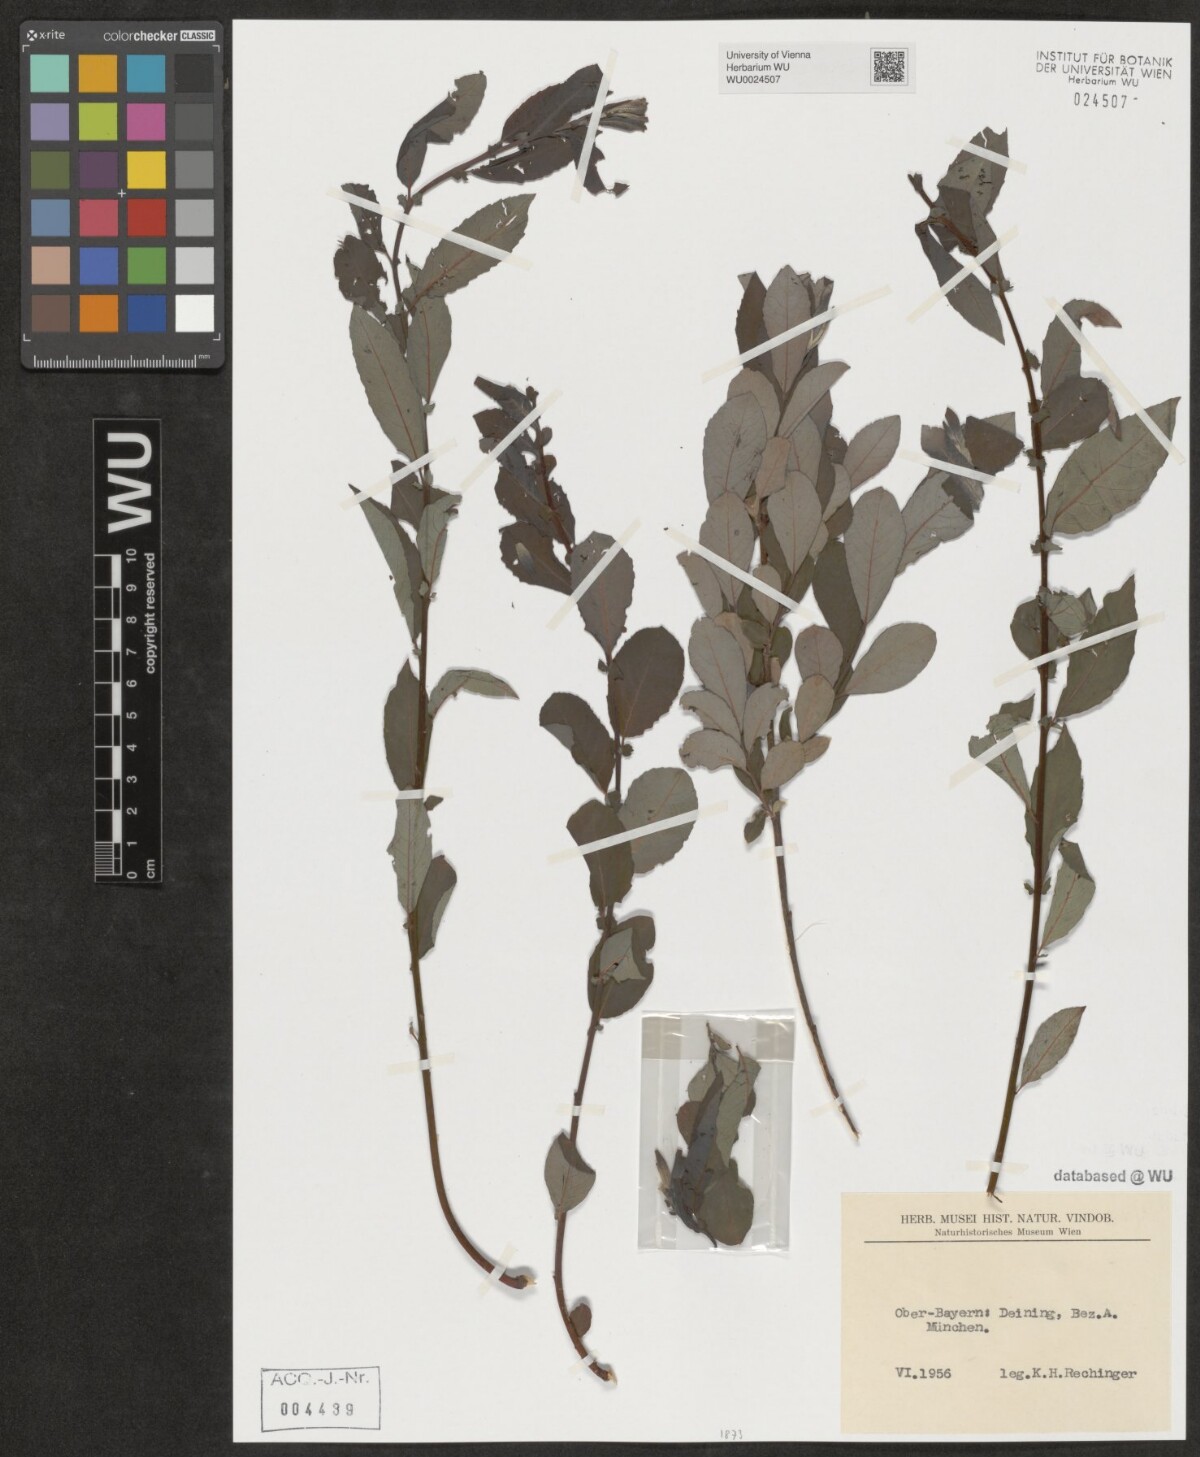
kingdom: Plantae
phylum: Tracheophyta
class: Magnoliopsida
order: Malpighiales
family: Salicaceae
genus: Salix
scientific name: Salix
